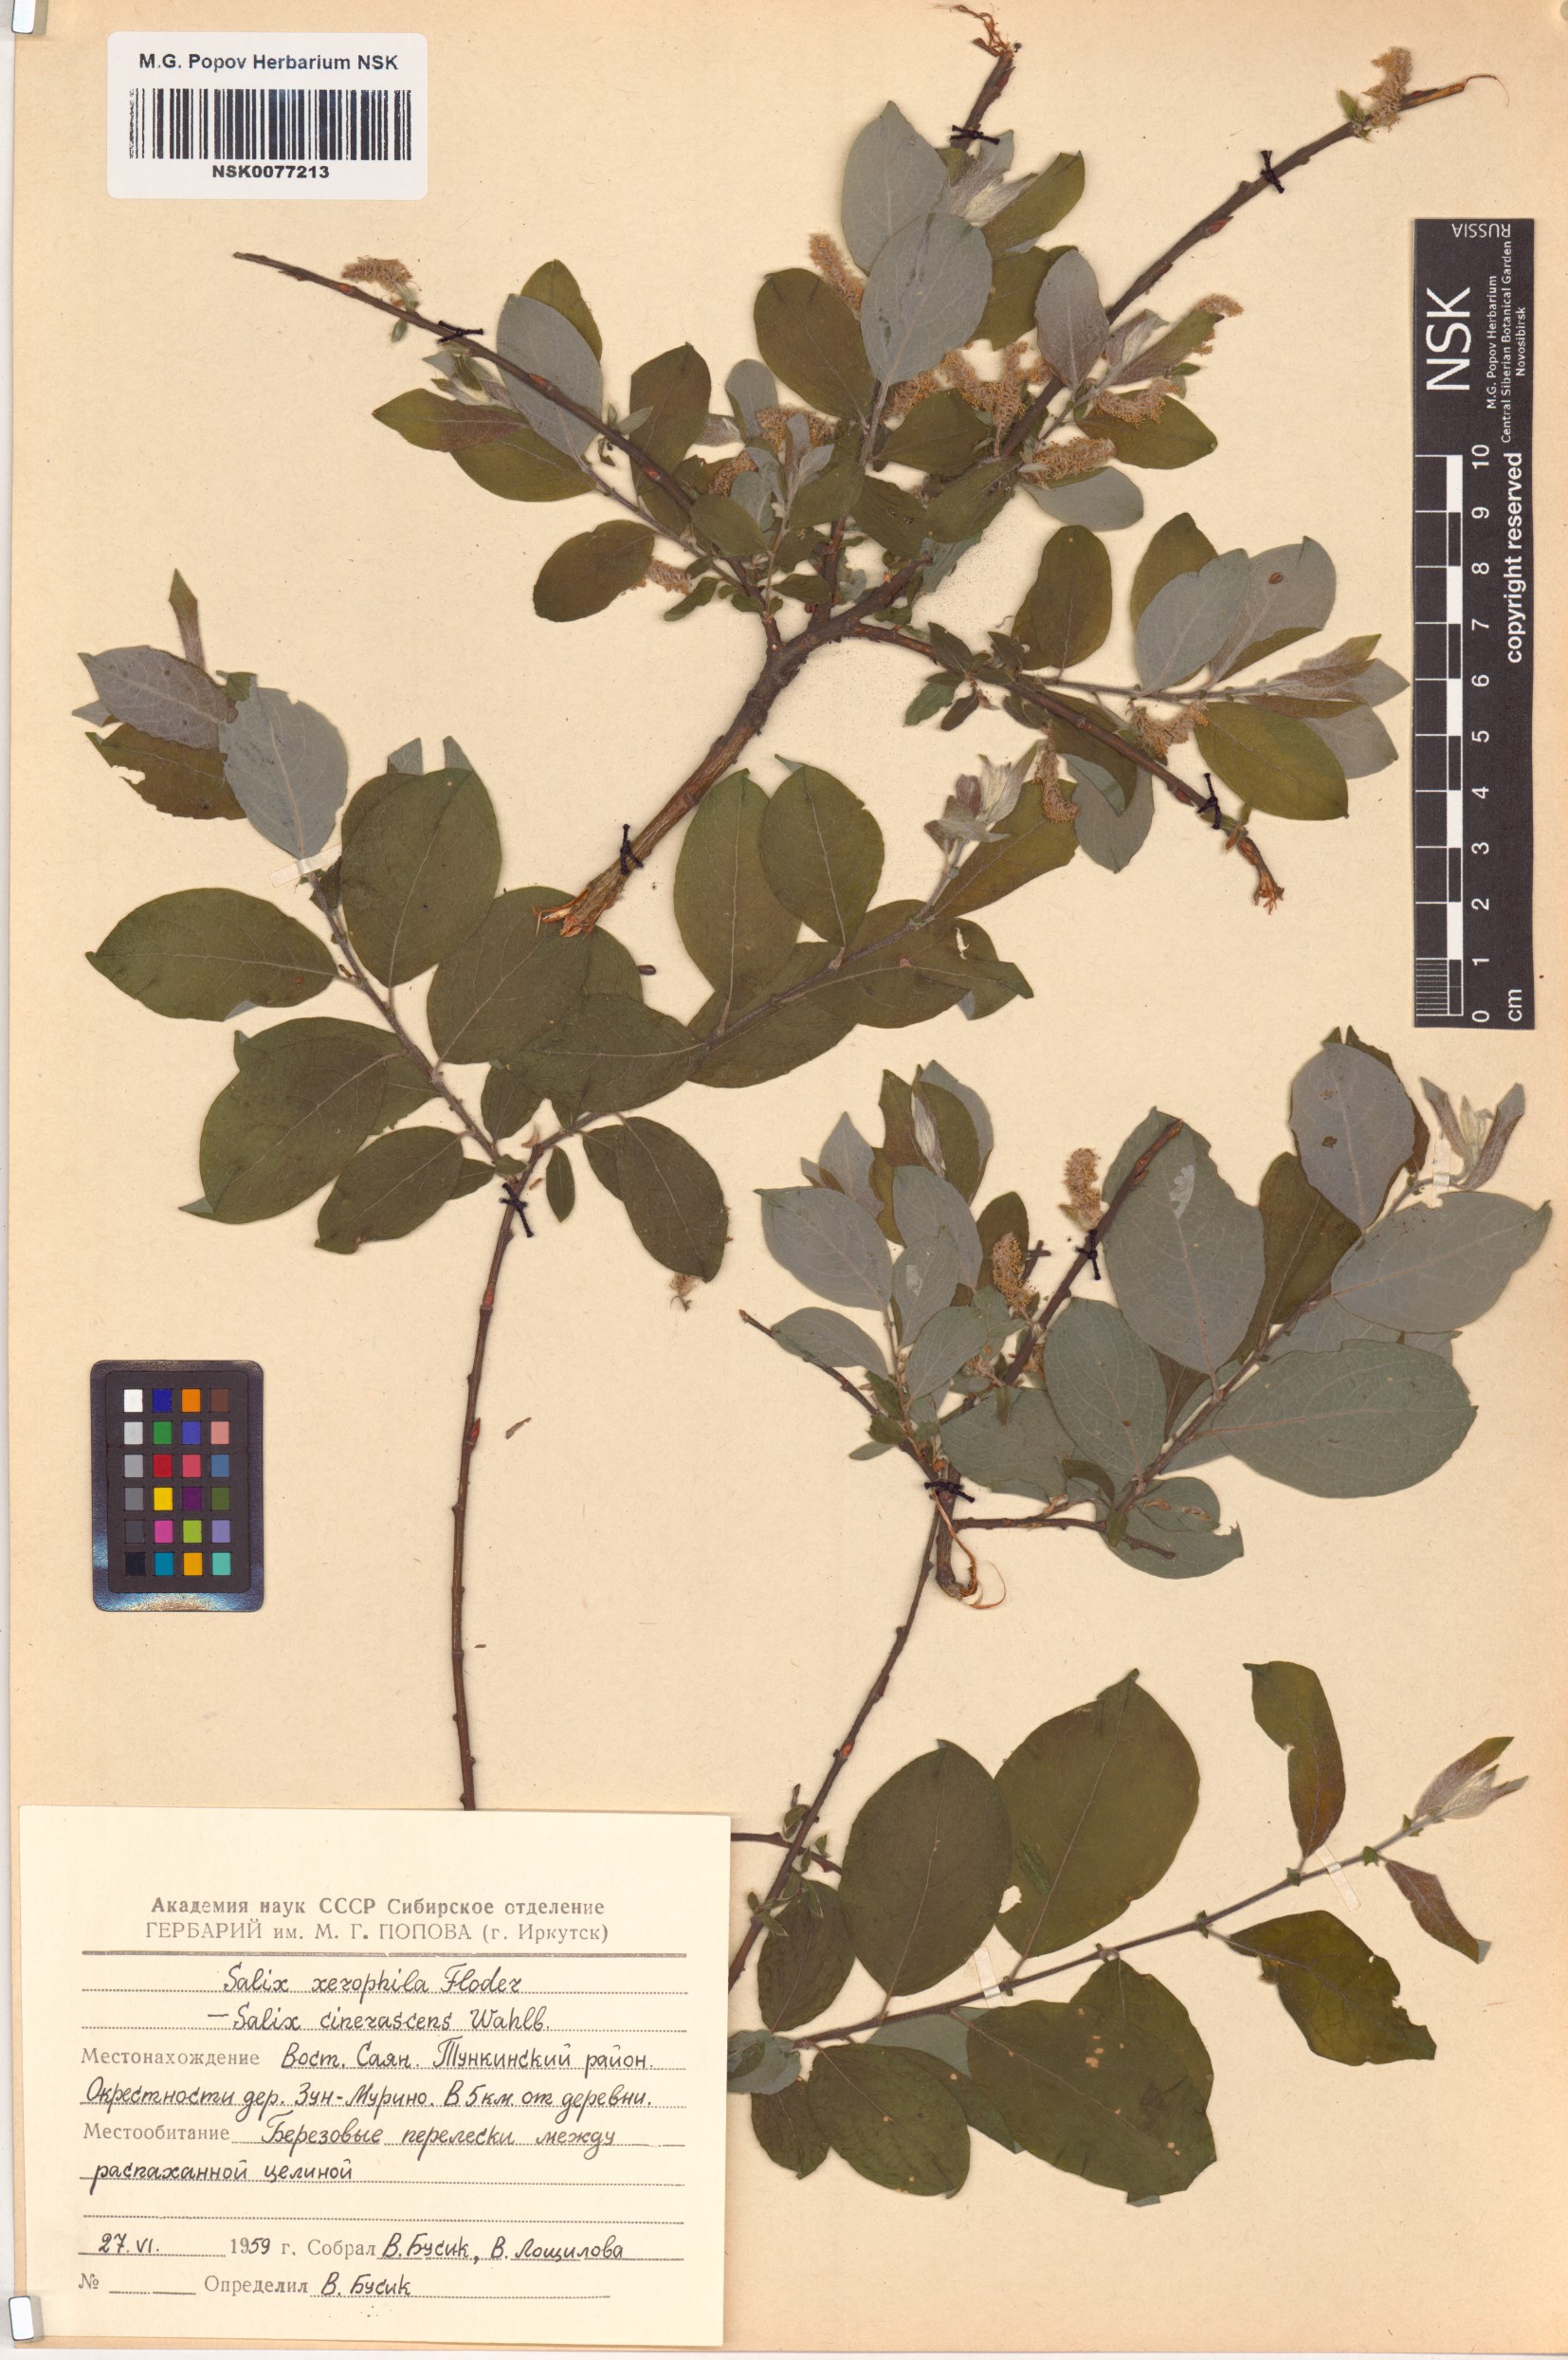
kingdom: Plantae
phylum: Tracheophyta
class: Magnoliopsida
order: Malpighiales
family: Salicaceae
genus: Salix
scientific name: Salix bebbiana
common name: Bebb's willow
